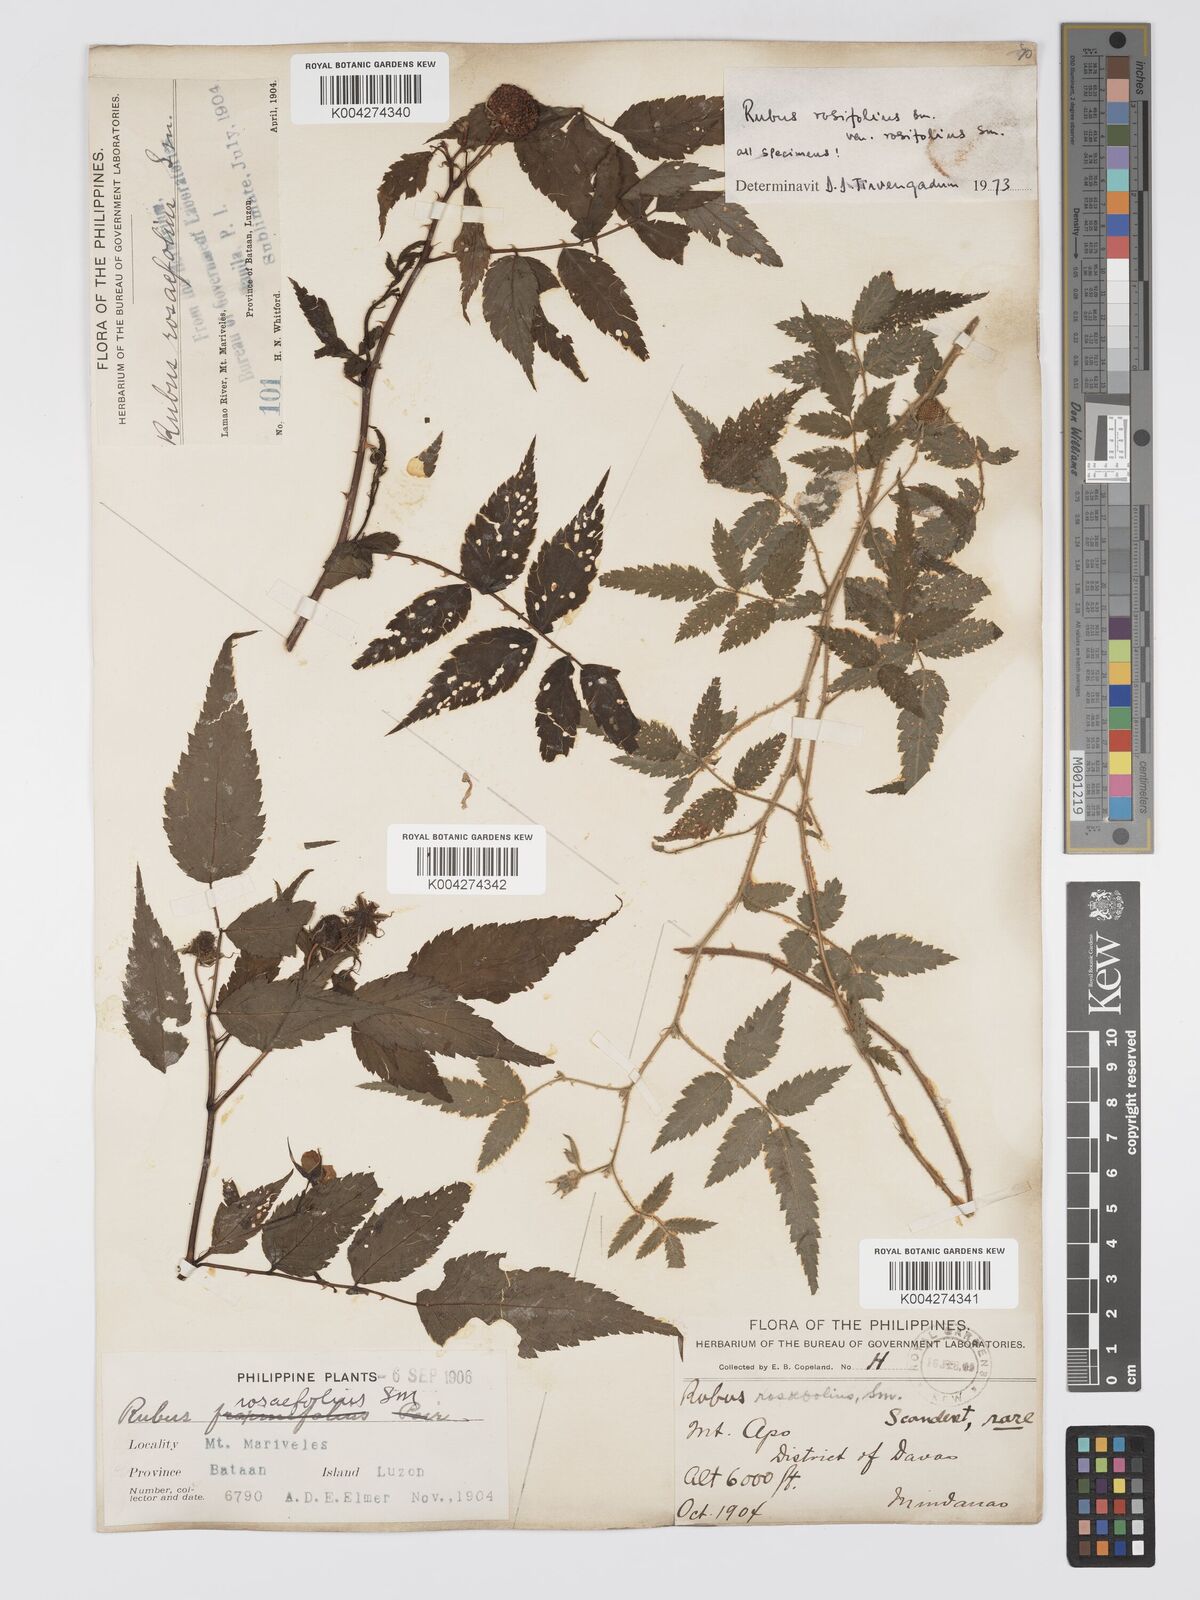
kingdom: Plantae
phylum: Tracheophyta
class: Magnoliopsida
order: Rosales
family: Rosaceae
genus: Rubus
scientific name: Rubus
